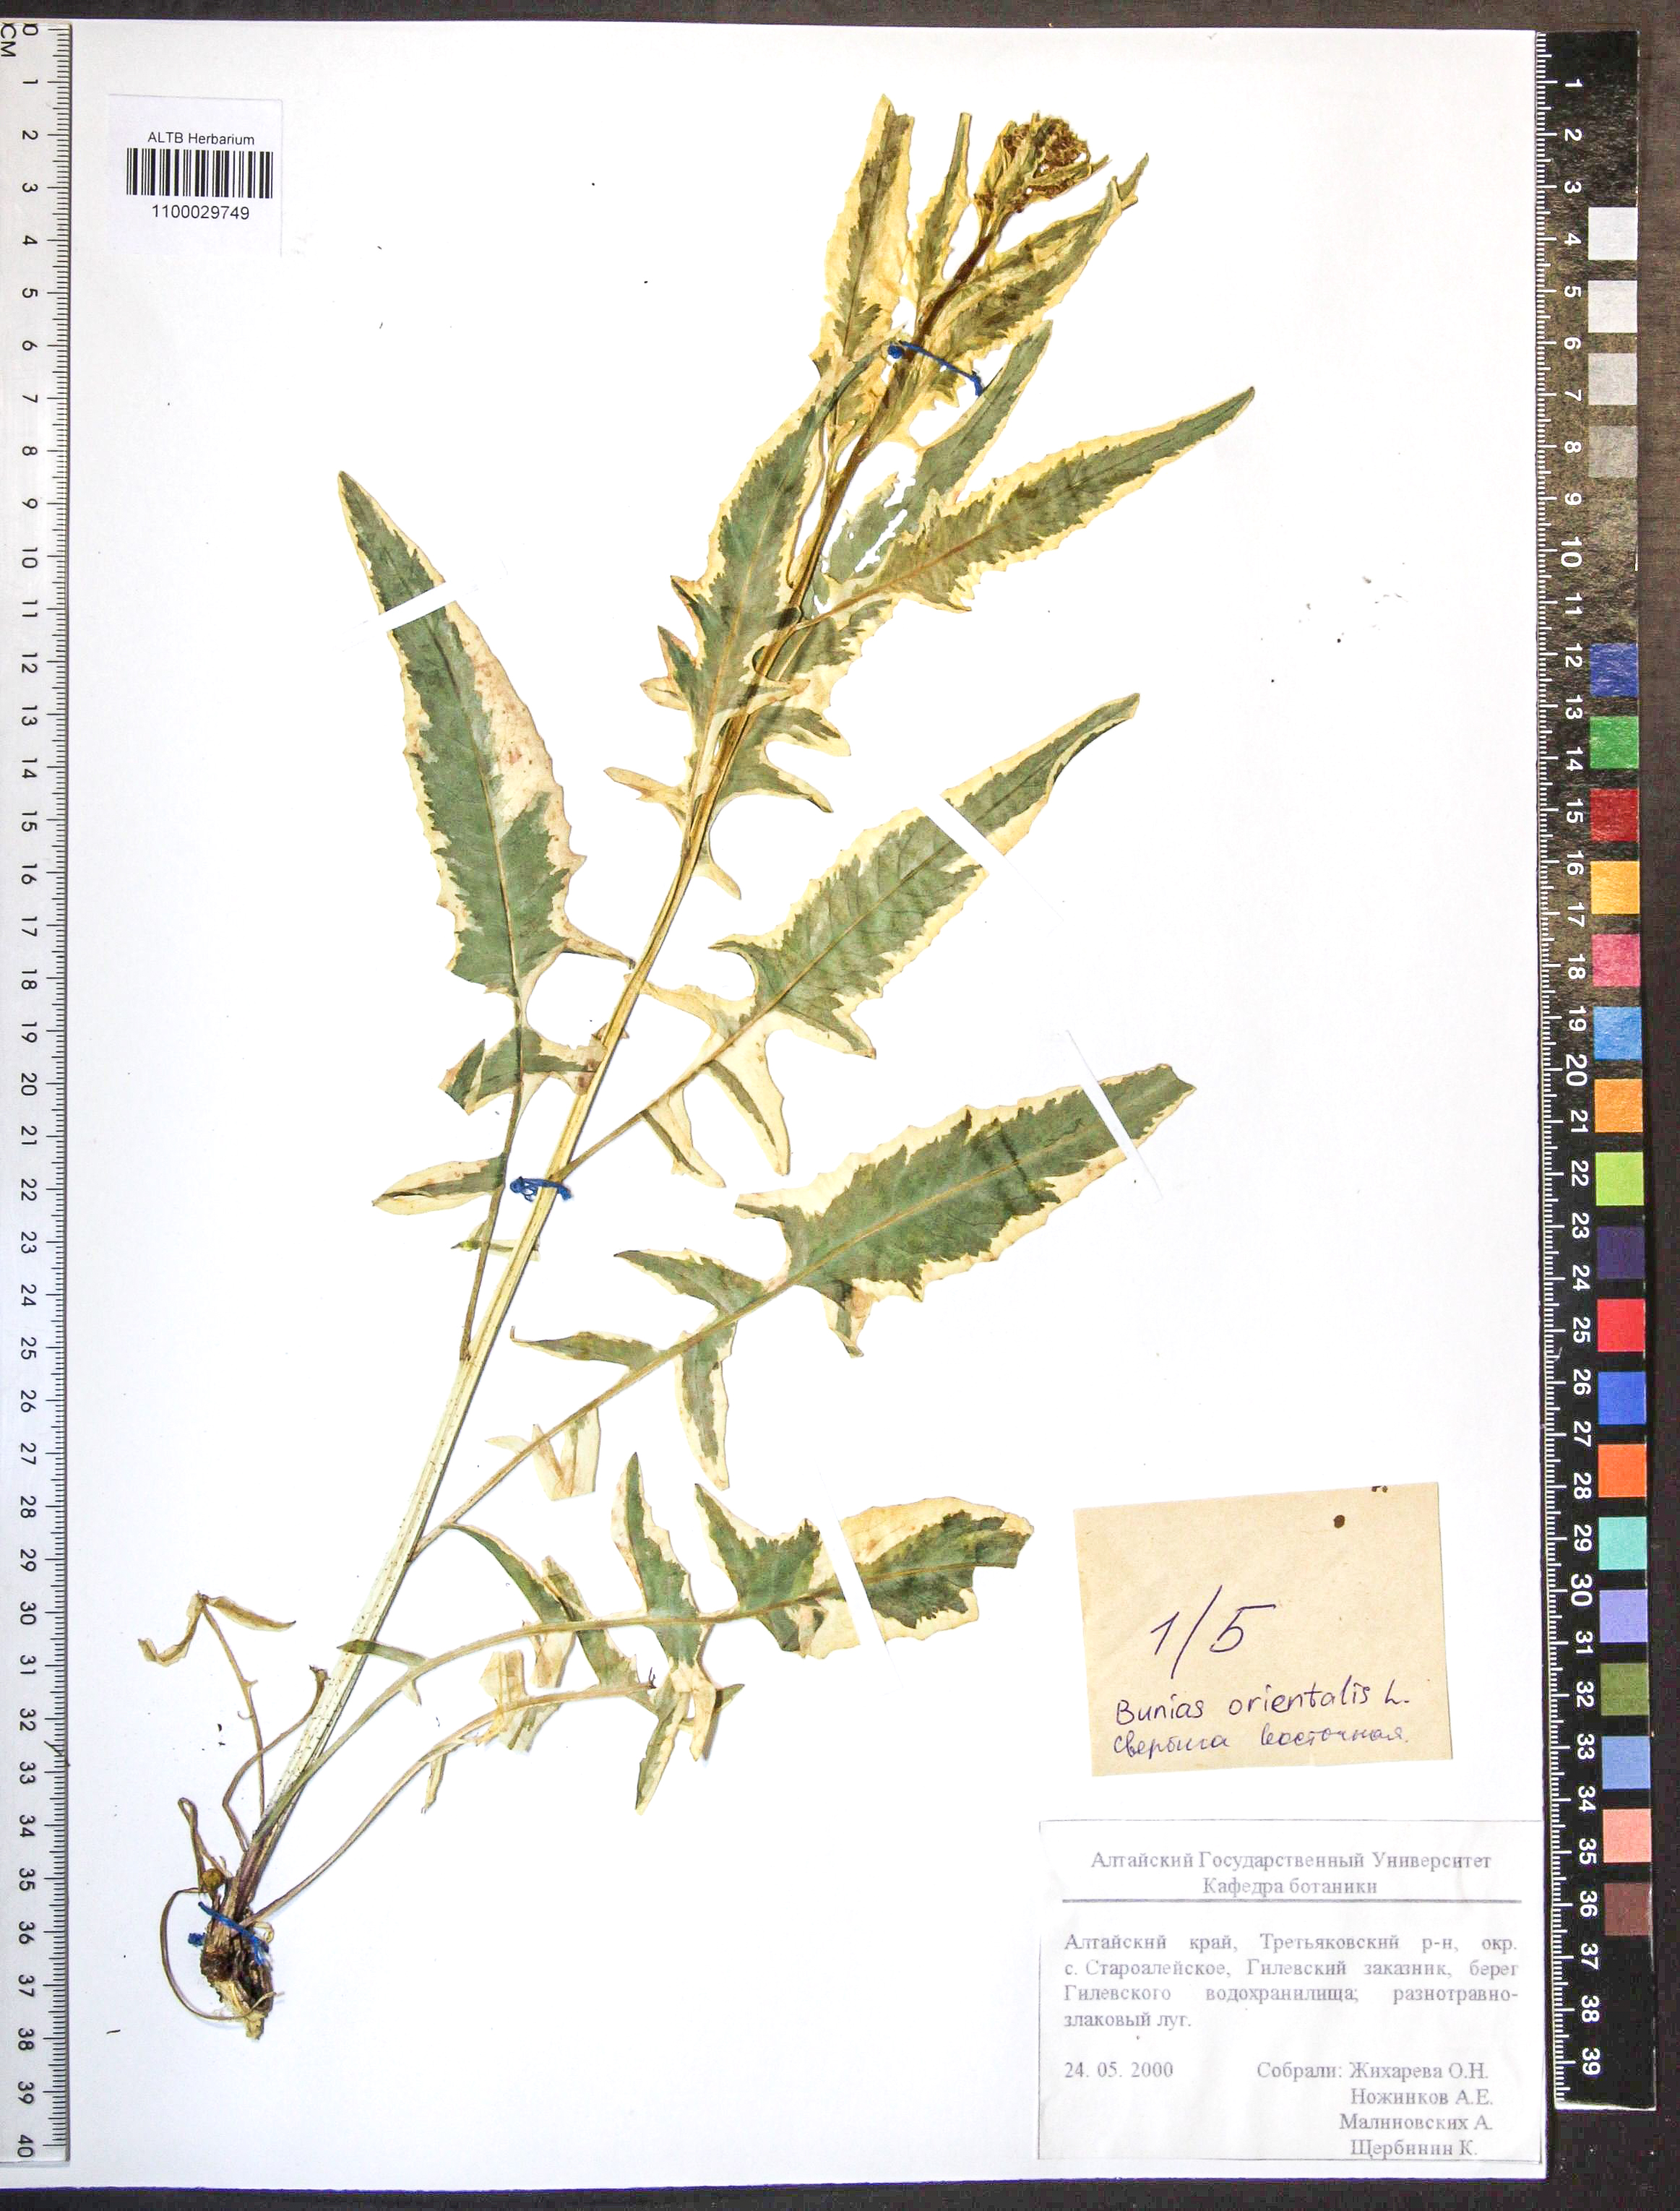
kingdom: Plantae
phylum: Tracheophyta
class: Magnoliopsida
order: Brassicales
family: Brassicaceae
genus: Bunias
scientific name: Bunias orientalis
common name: Warty-cabbage
